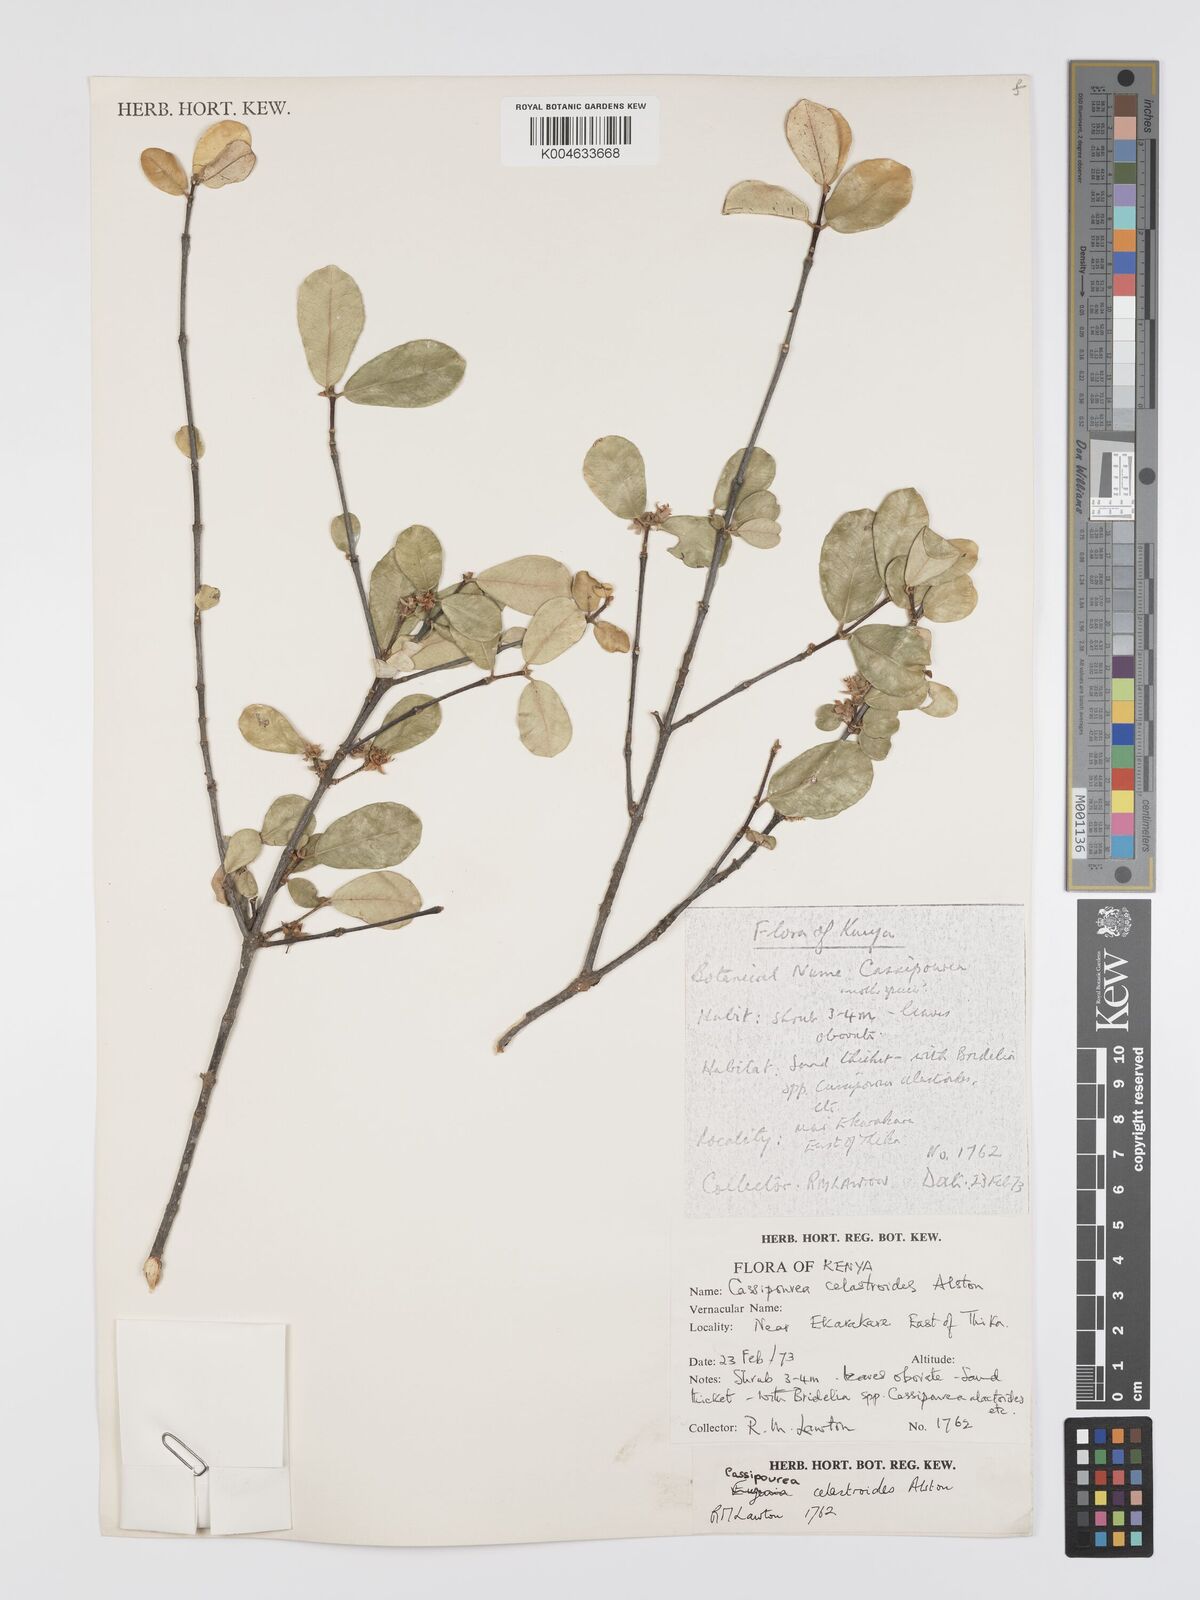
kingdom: Plantae
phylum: Tracheophyta
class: Magnoliopsida
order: Malpighiales
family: Rhizophoraceae
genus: Cassipourea
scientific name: Cassipourea celastroides
